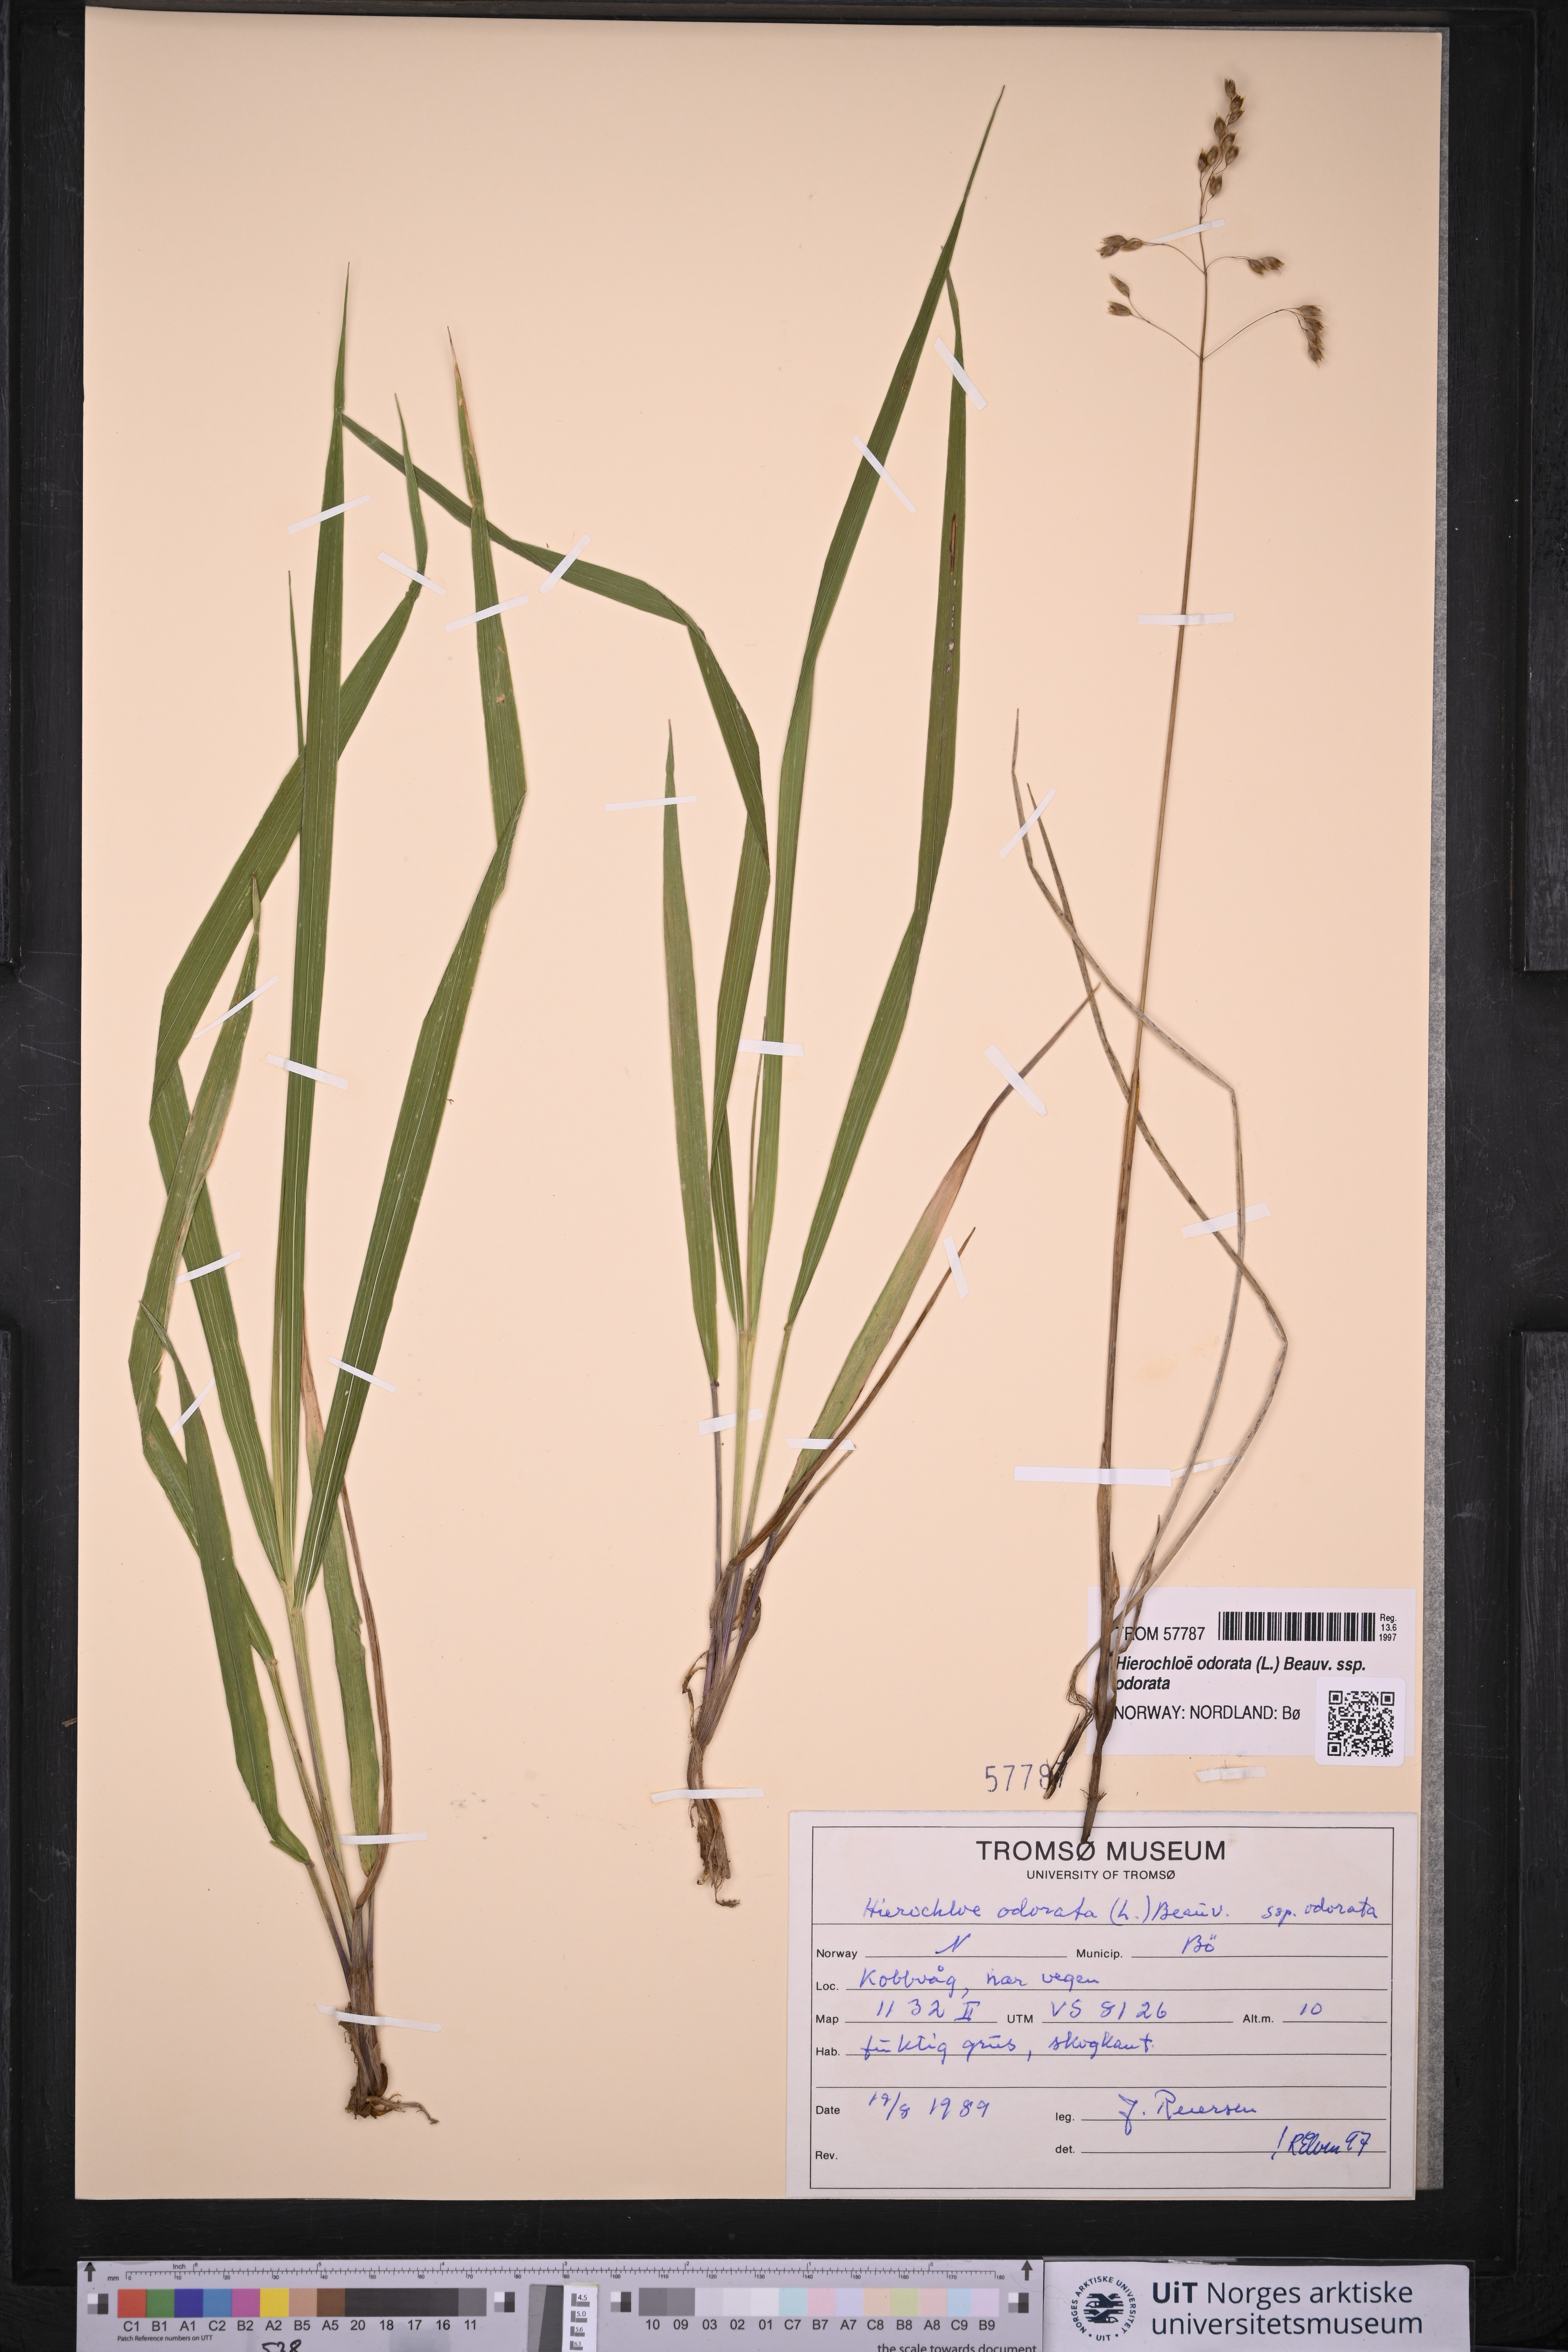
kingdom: Plantae
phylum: Tracheophyta
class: Liliopsida
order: Poales
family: Poaceae
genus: Anthoxanthum
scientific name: Anthoxanthum nitens
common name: Holy grass
